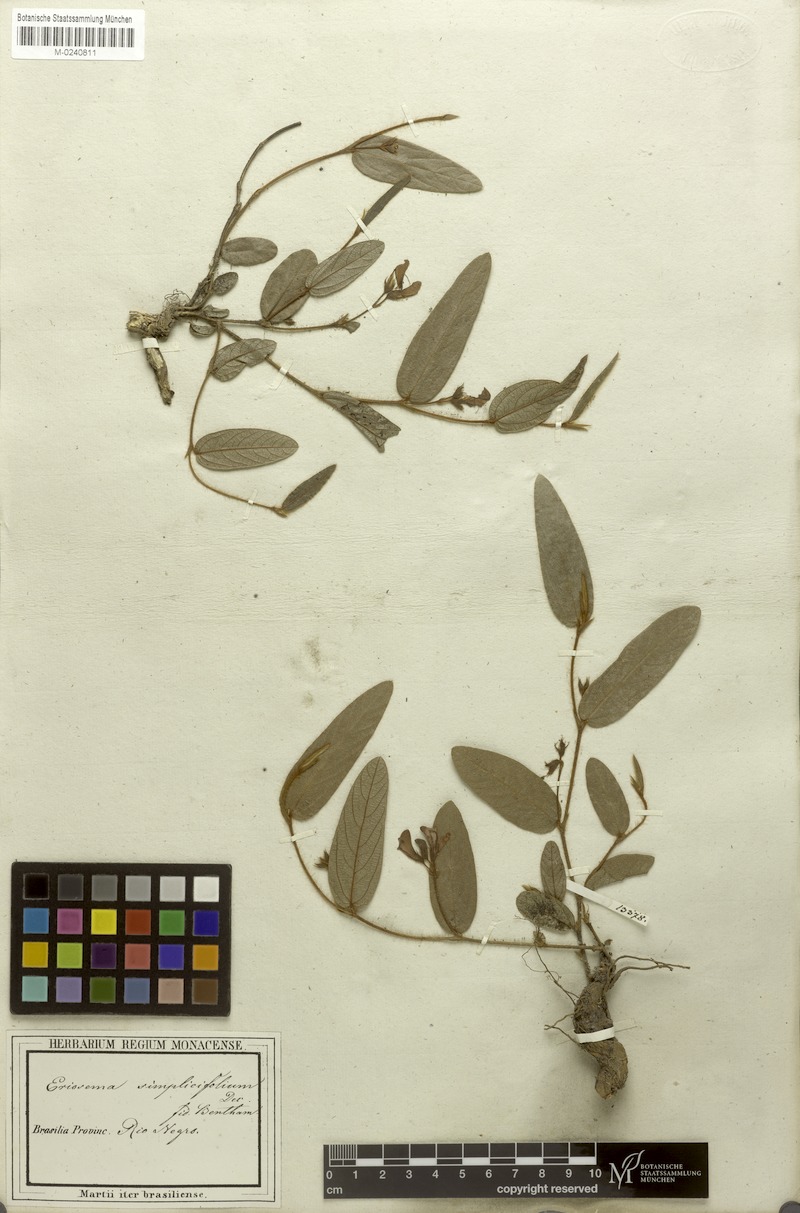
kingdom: Plantae
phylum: Tracheophyta
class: Magnoliopsida
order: Fabales
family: Fabaceae
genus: Eriosema
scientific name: Eriosema simplicifolium
